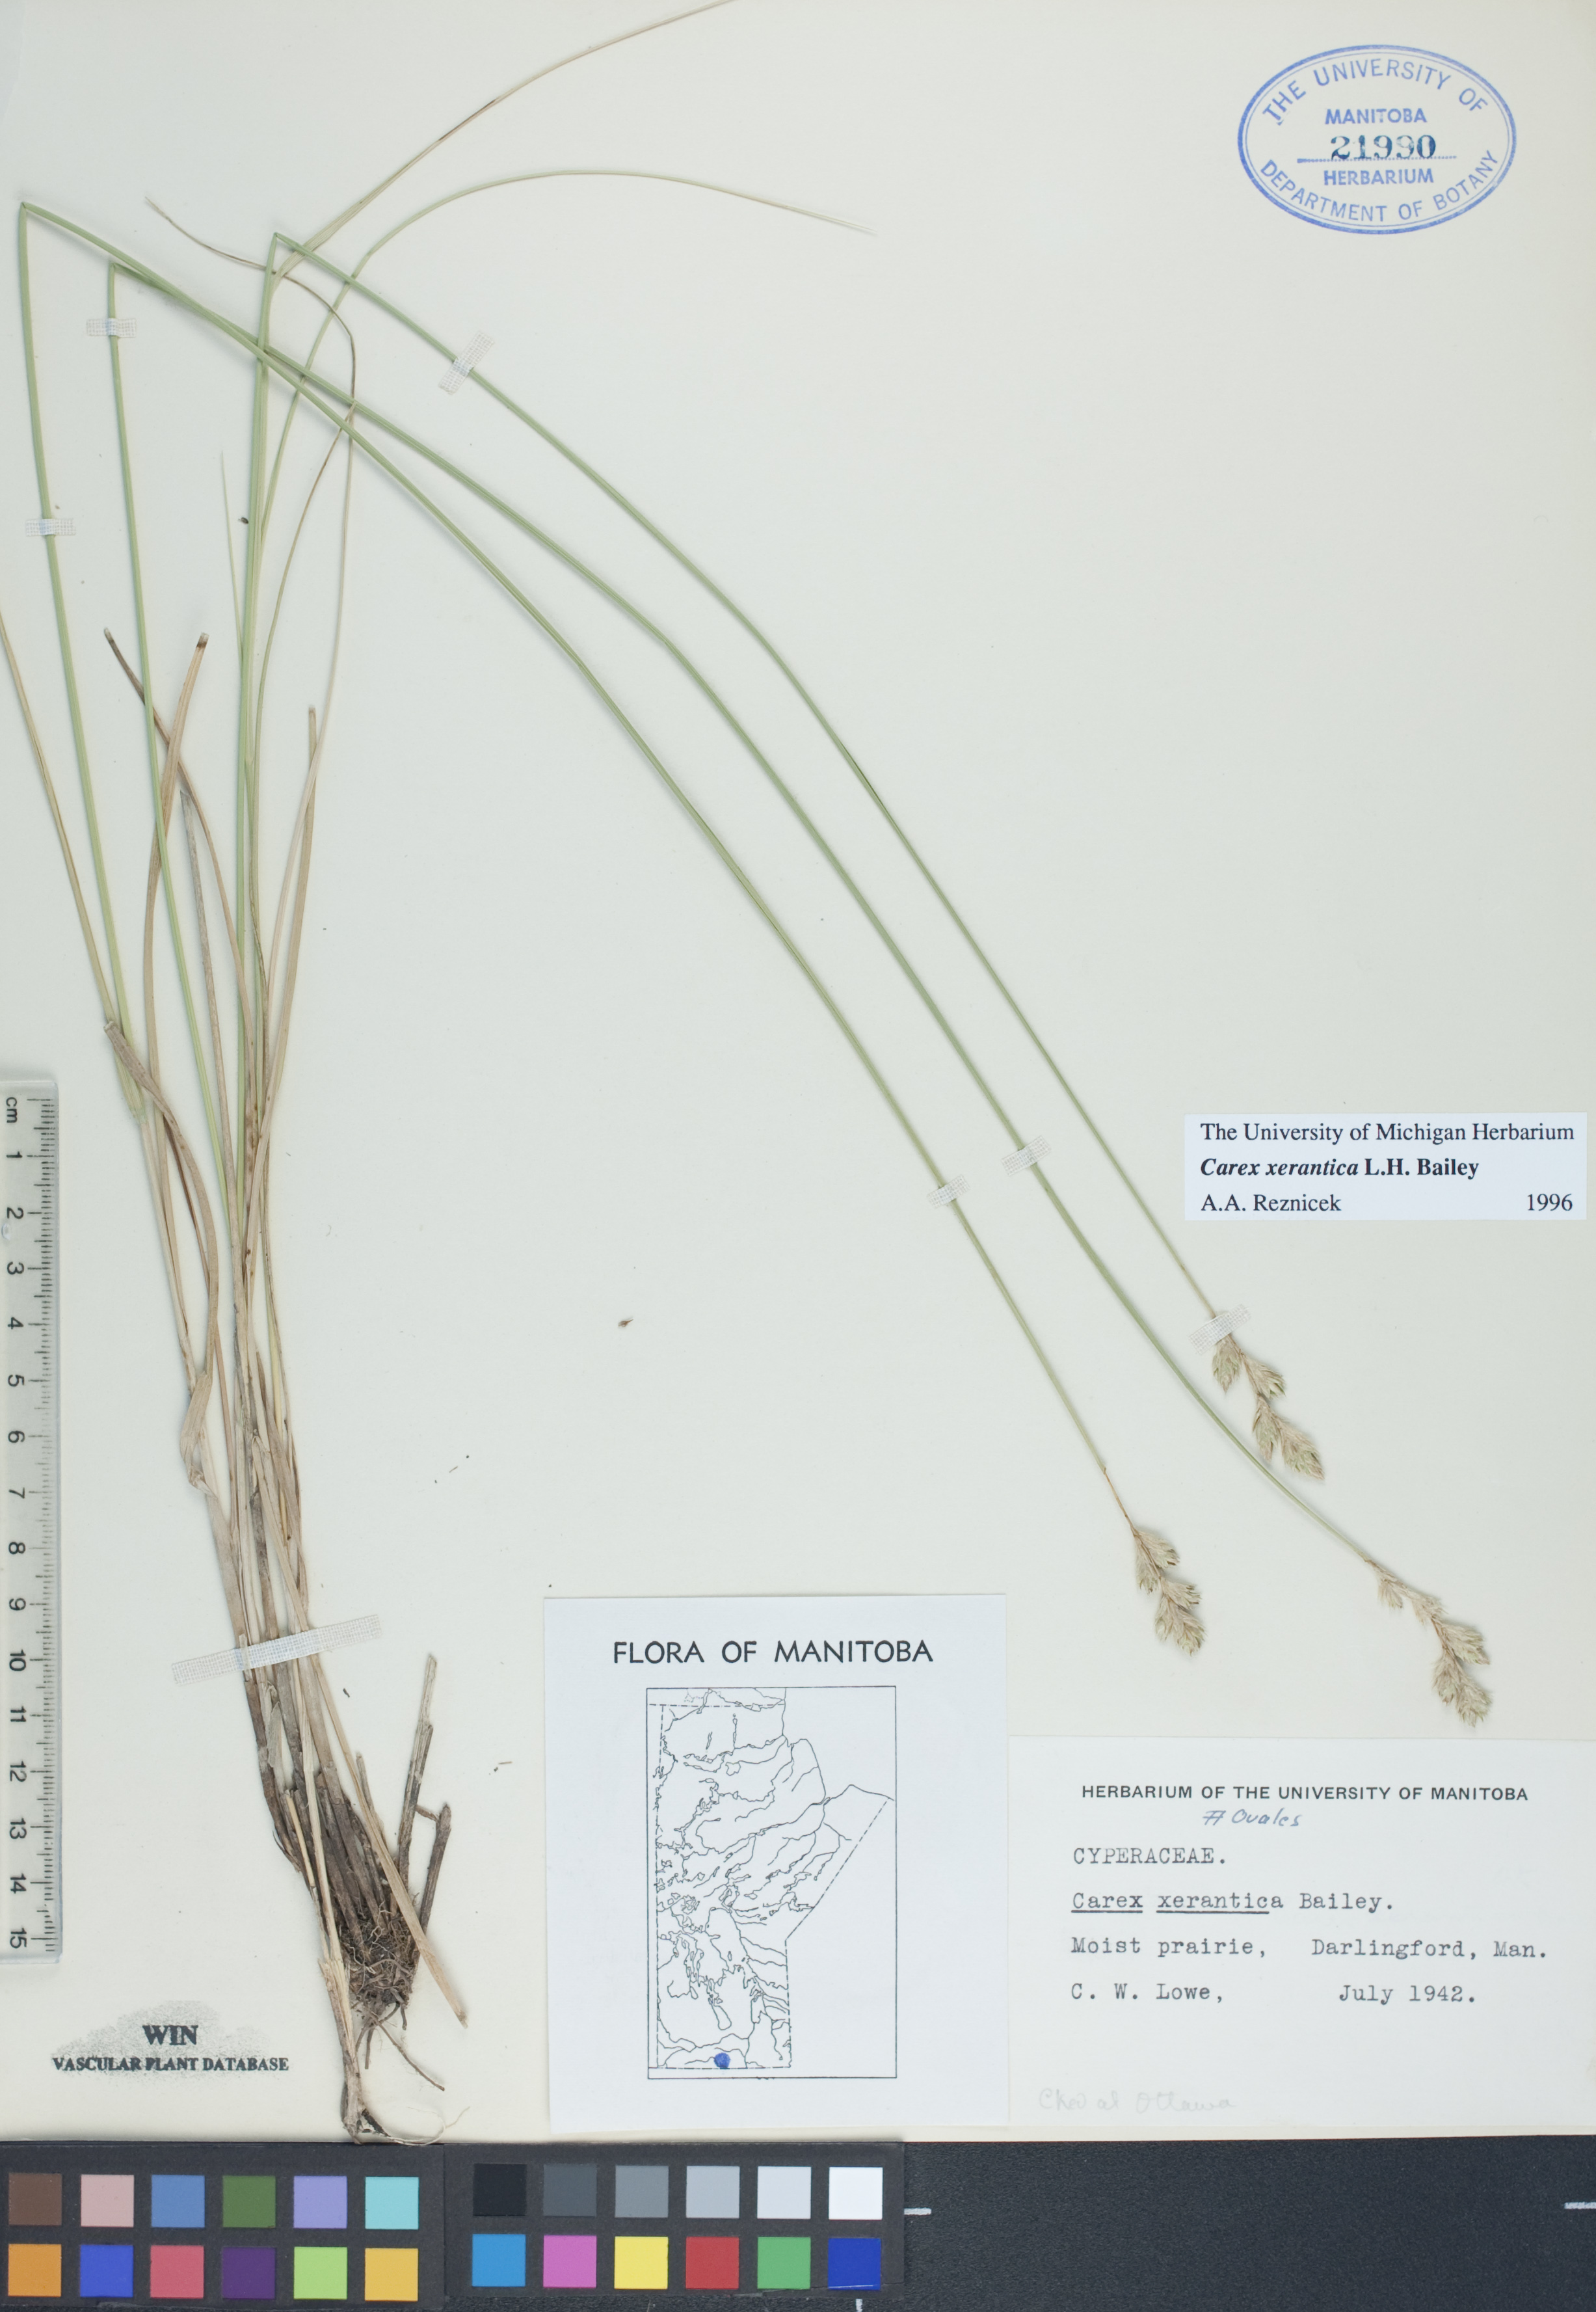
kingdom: Plantae
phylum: Tracheophyta
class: Liliopsida
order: Poales
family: Cyperaceae
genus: Carex
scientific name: Carex xerantica
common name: Dryland sedge
